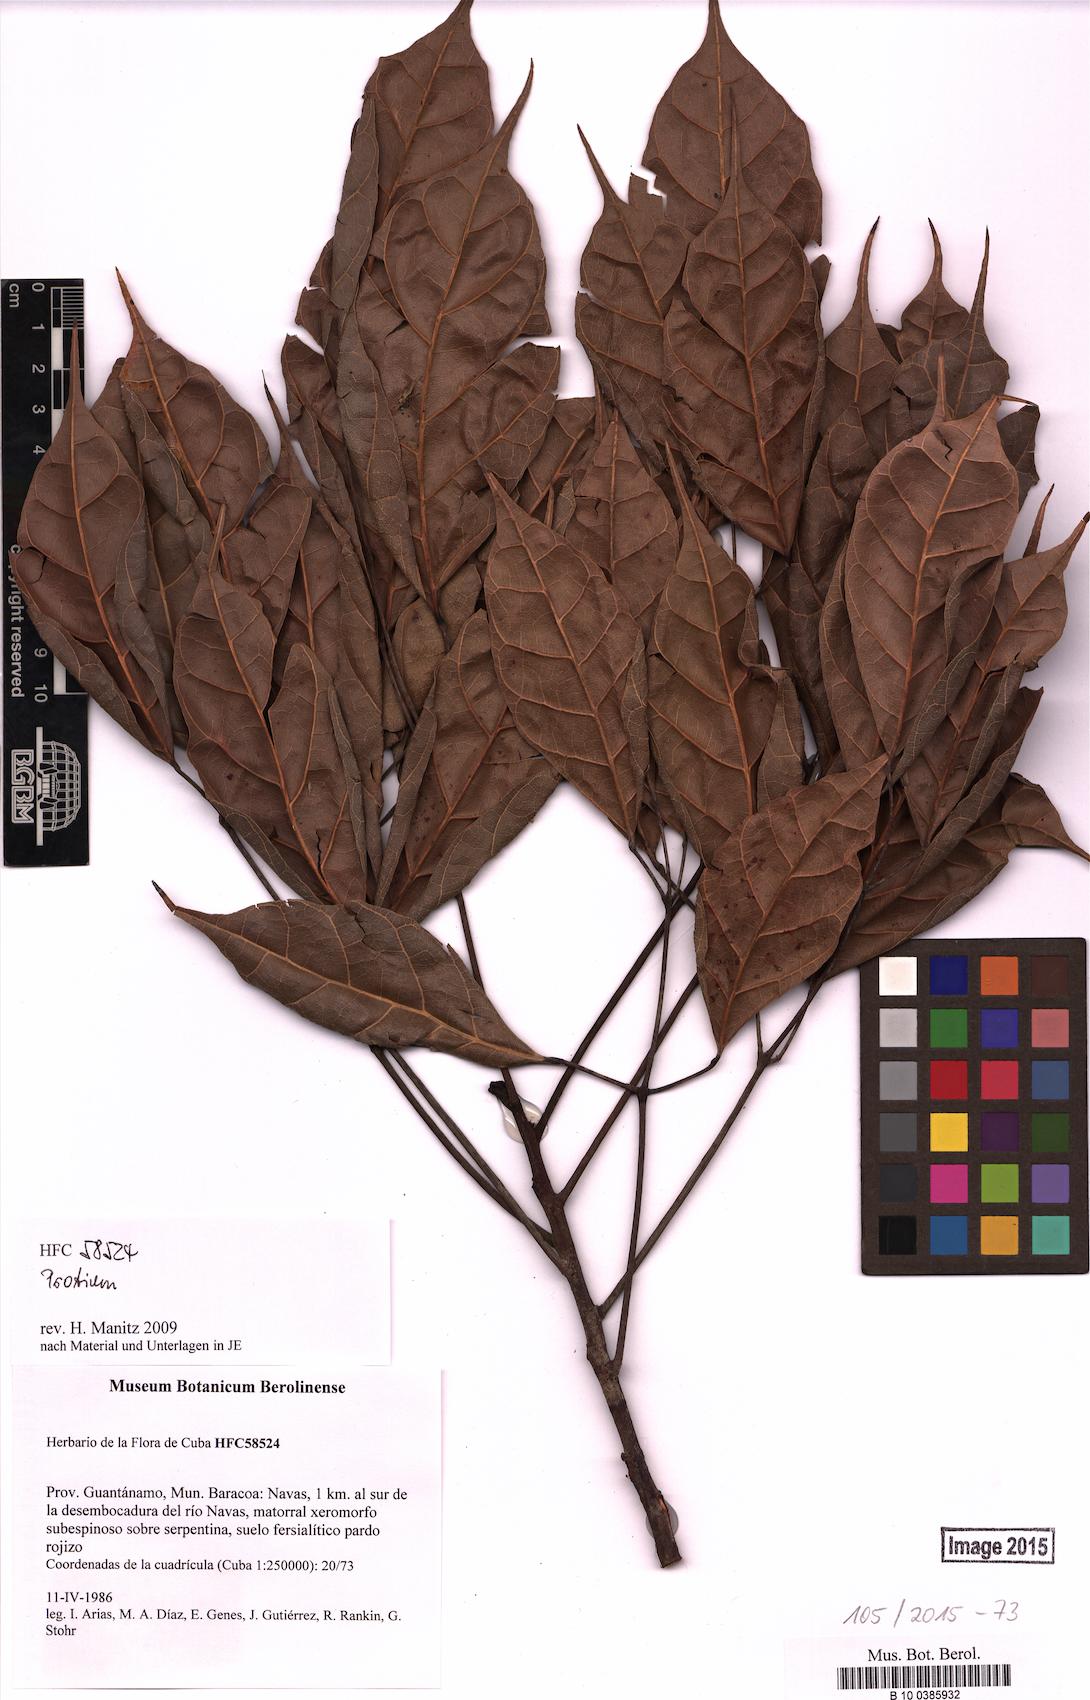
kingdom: Plantae
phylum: Tracheophyta
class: Magnoliopsida
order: Sapindales
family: Burseraceae
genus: Protium
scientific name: Protium
